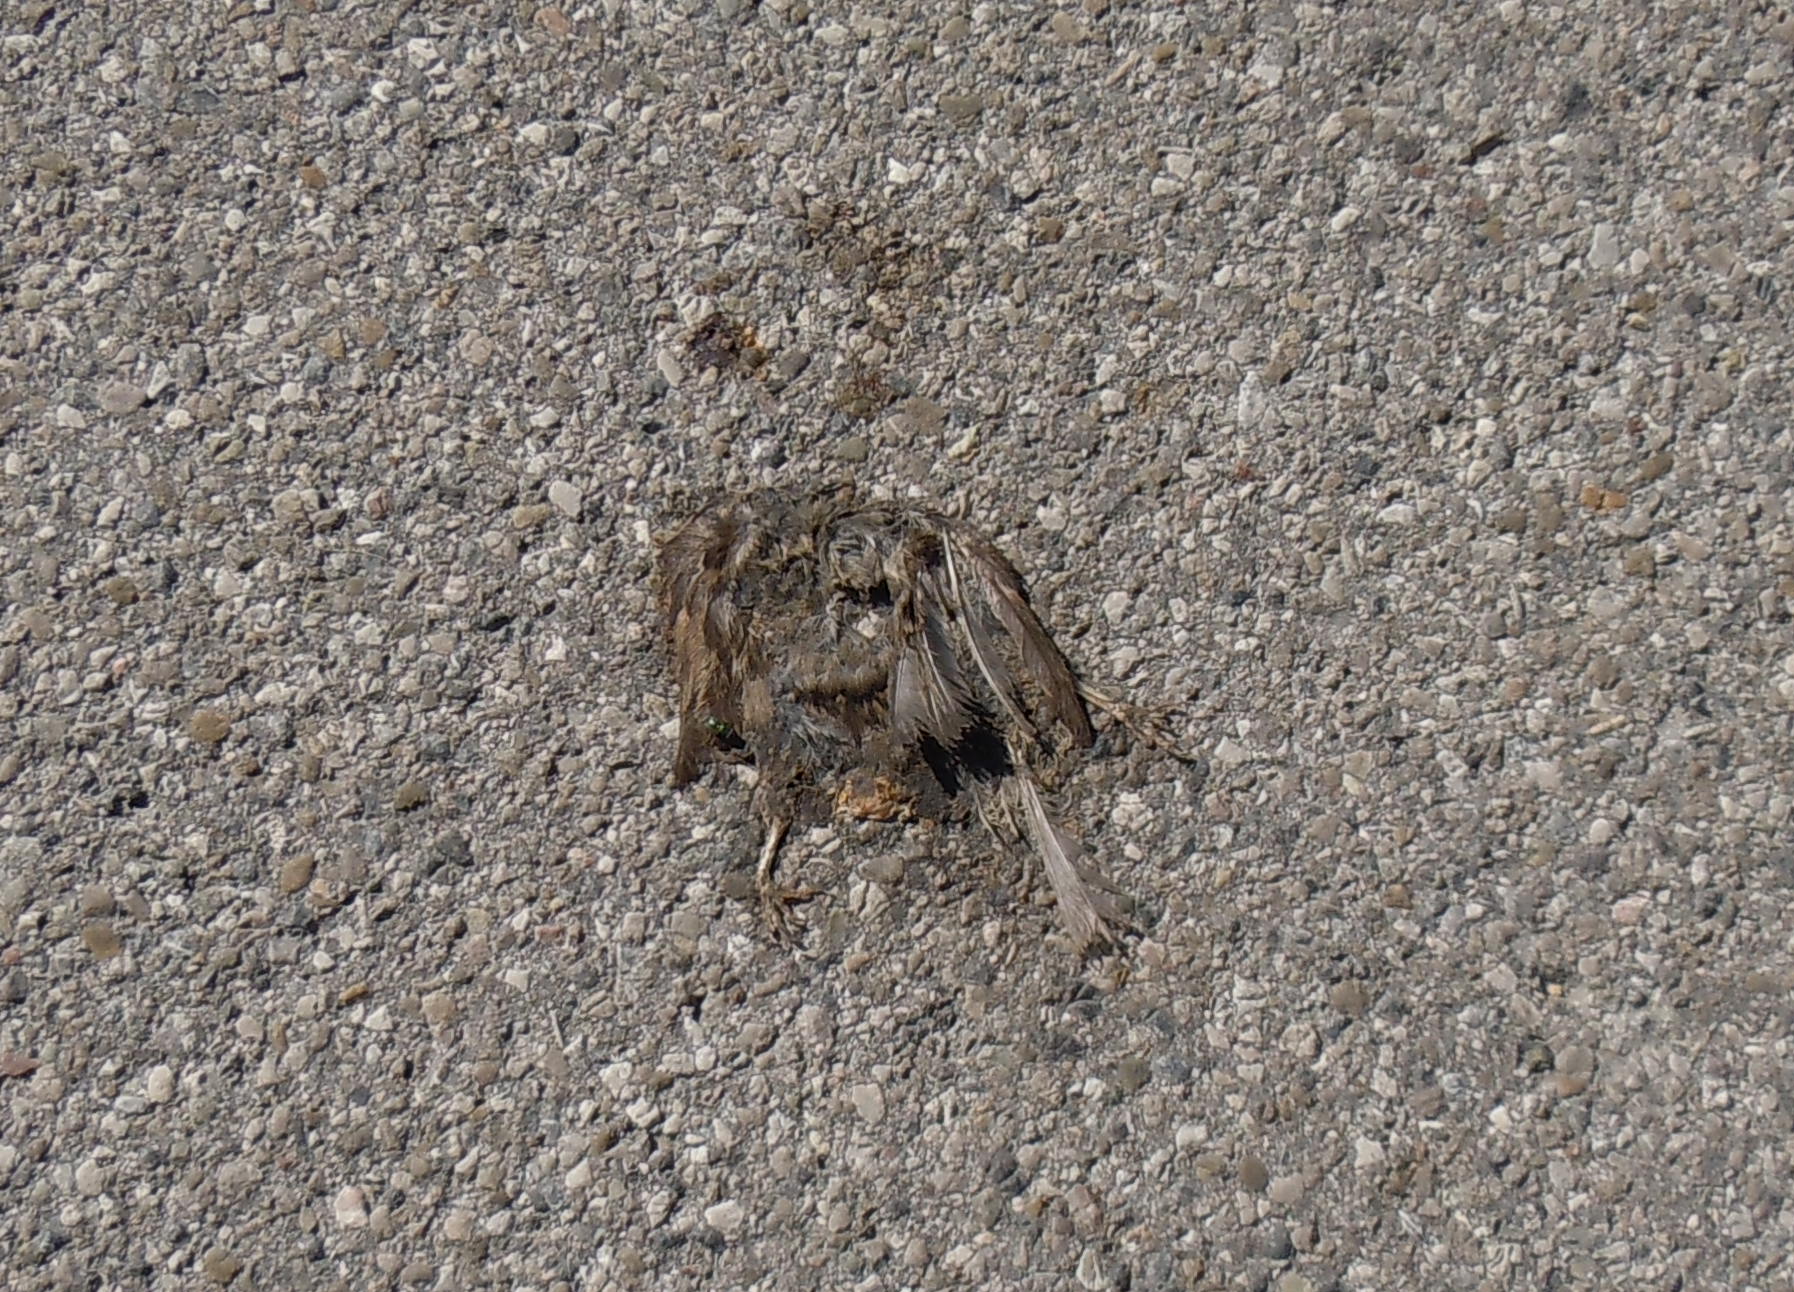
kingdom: Animalia
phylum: Chordata
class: Aves
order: Passeriformes
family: Passeridae
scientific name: Passeridae
